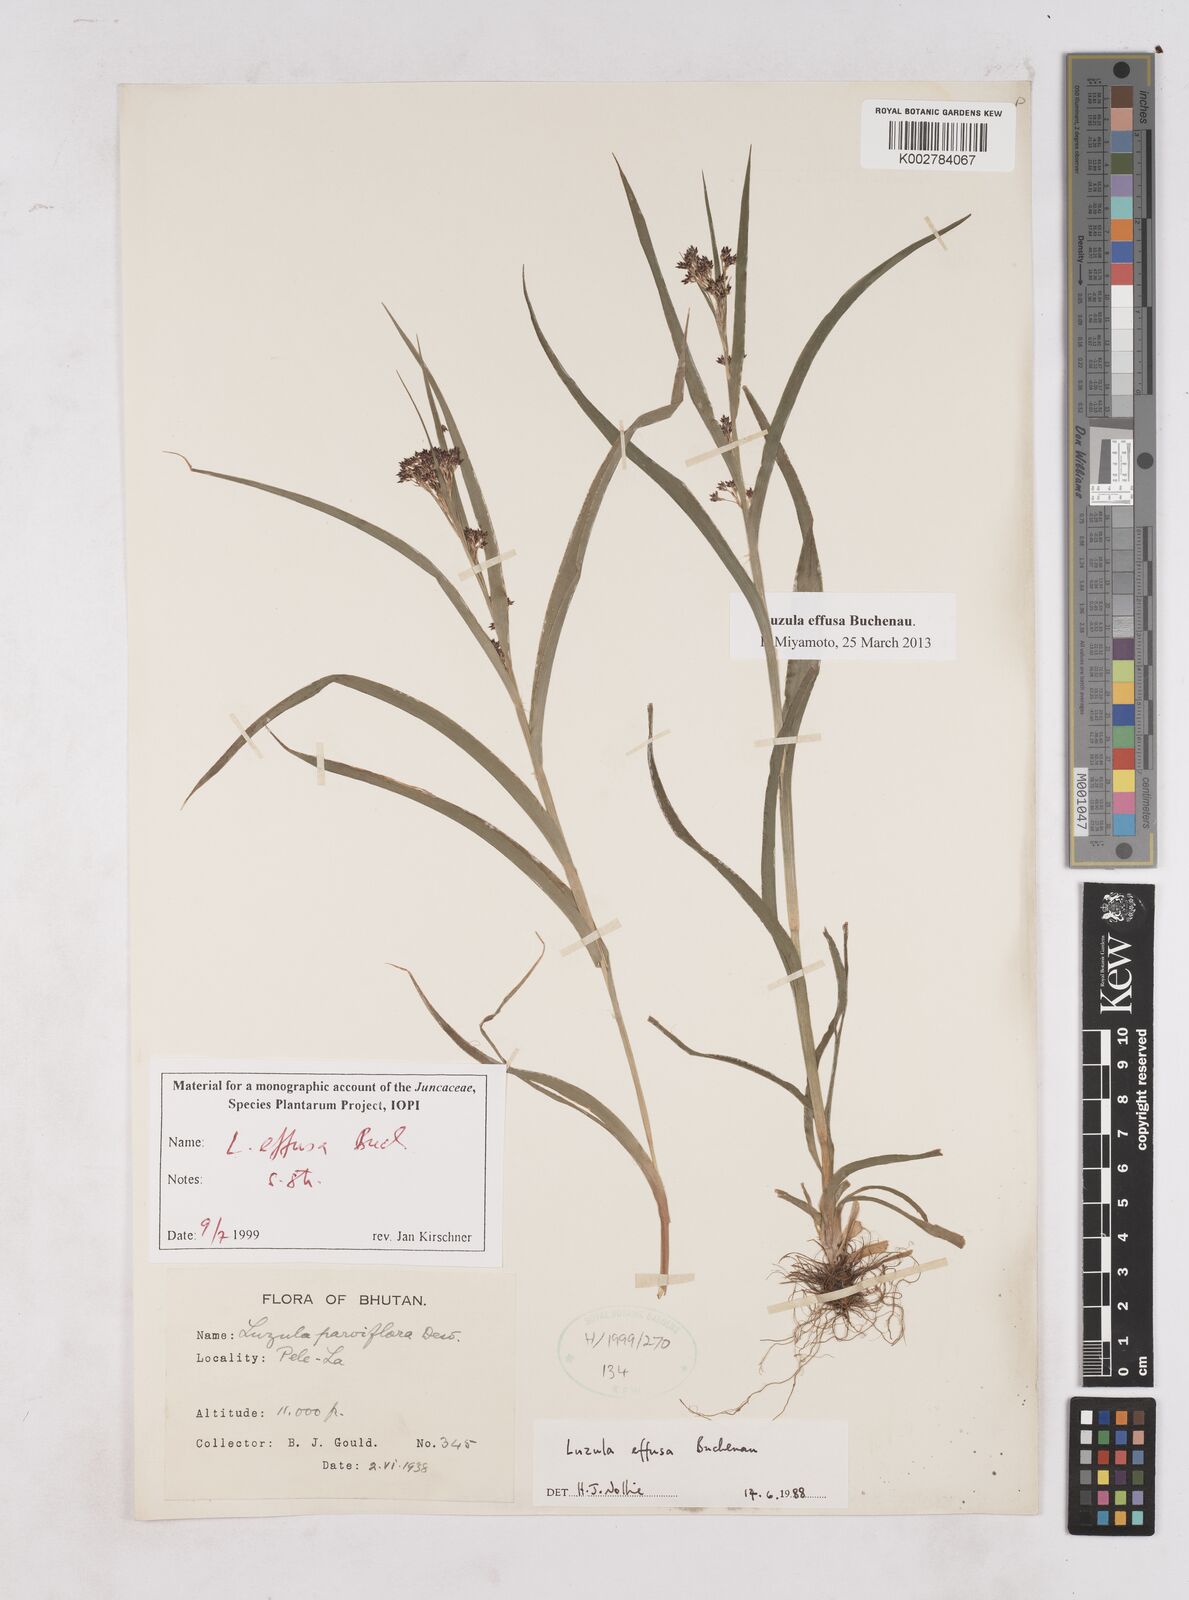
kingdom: Plantae
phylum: Tracheophyta
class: Liliopsida
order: Poales
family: Juncaceae
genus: Luzula
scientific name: Luzula effusa
